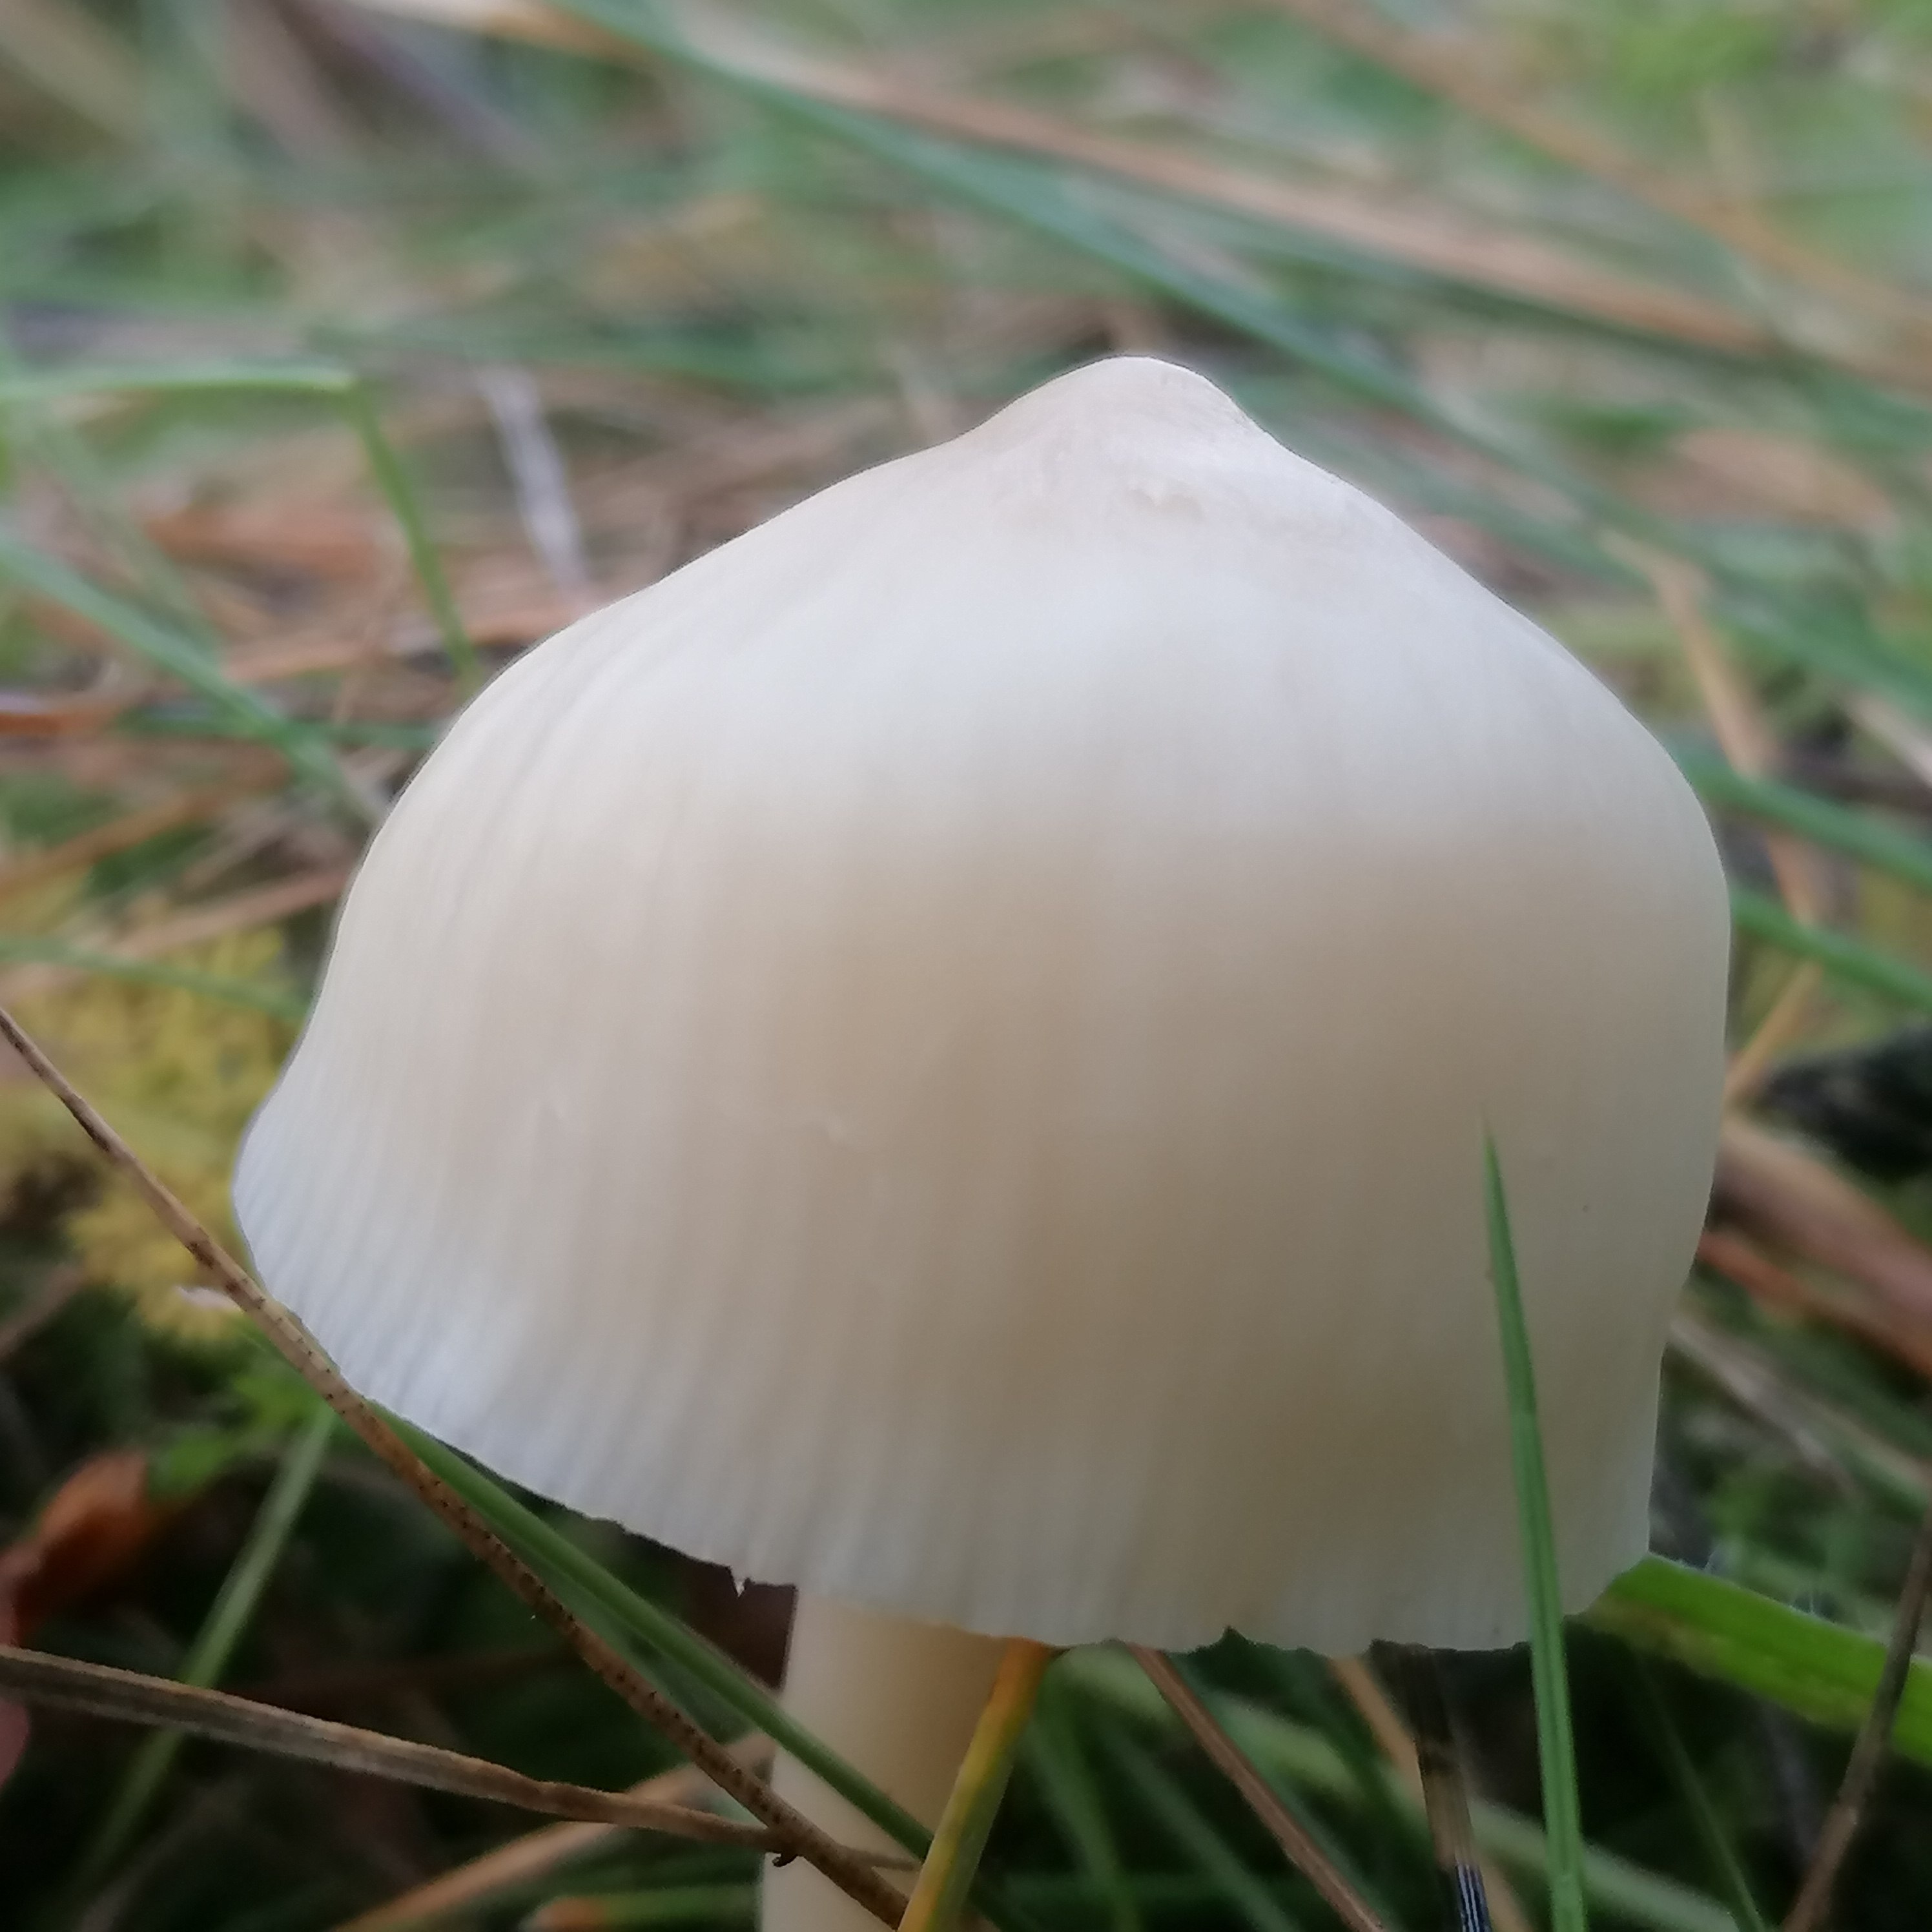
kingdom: Fungi
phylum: Basidiomycota
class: Agaricomycetes
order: Agaricales
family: Hygrophoraceae
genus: Cuphophyllus
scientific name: Cuphophyllus virgineus
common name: snehvid vokshat
